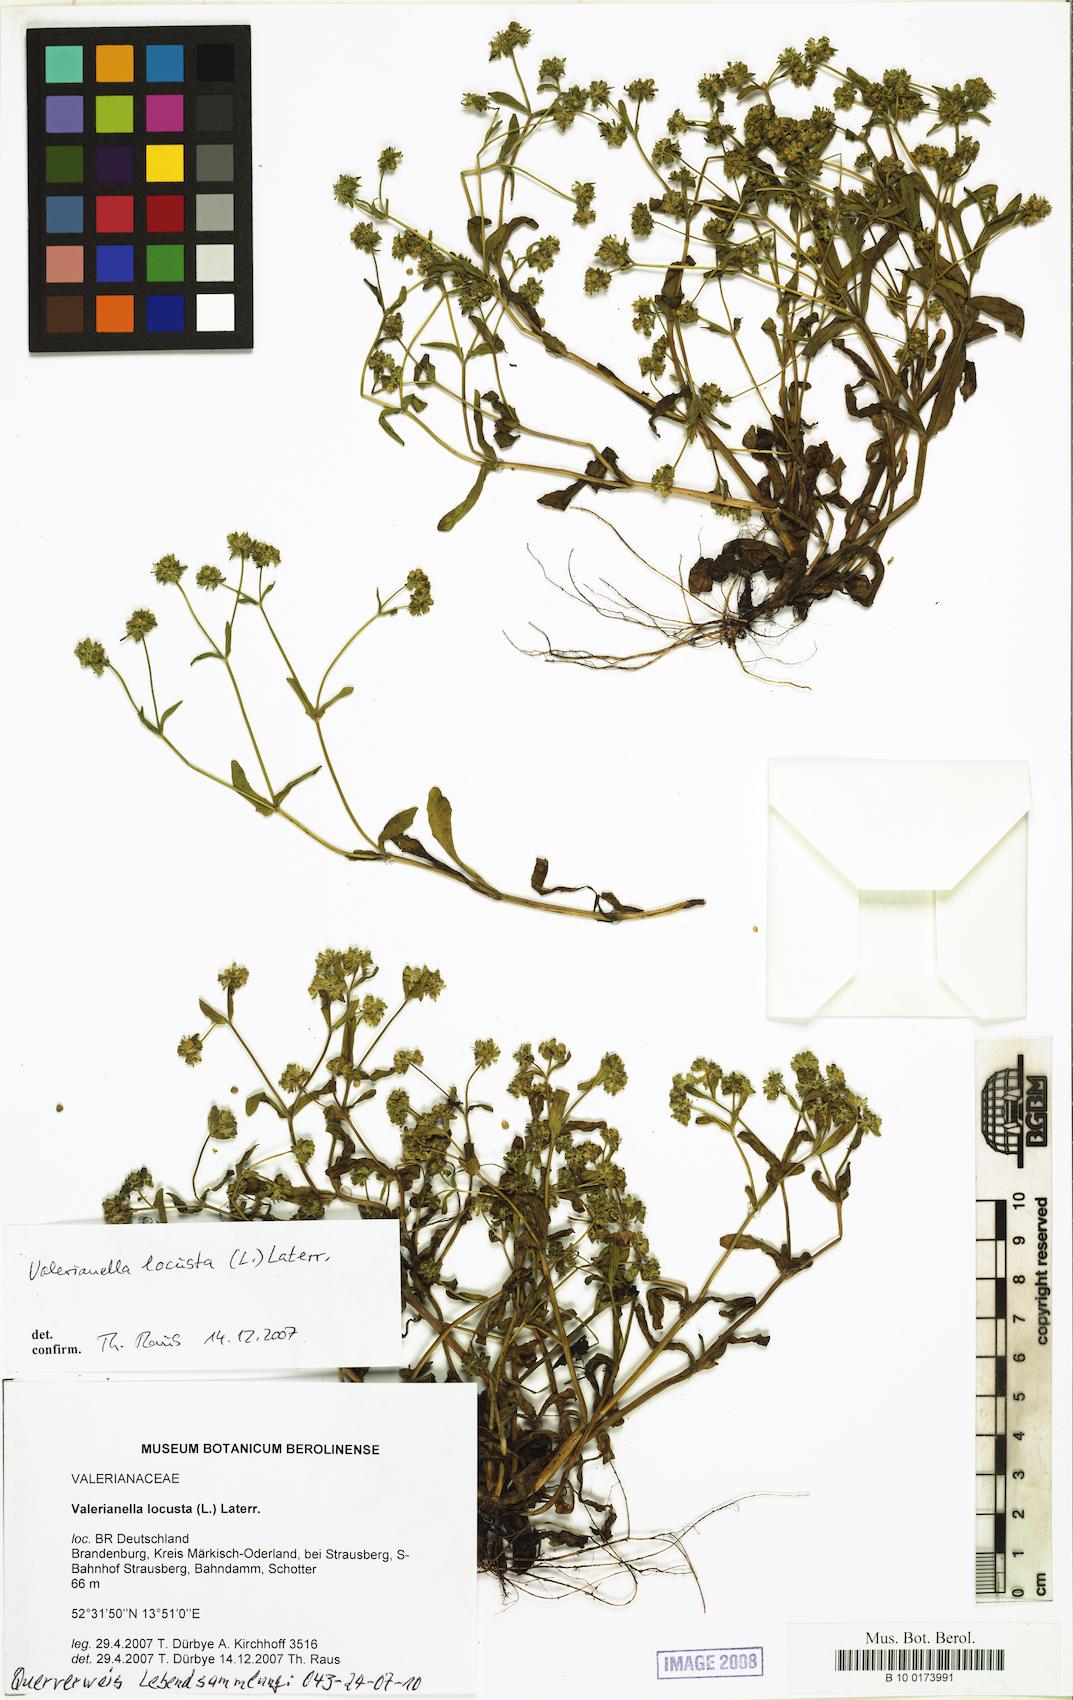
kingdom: Plantae
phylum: Tracheophyta
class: Magnoliopsida
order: Dipsacales
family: Caprifoliaceae
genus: Valerianella
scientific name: Valerianella locusta
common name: Common cornsalad
